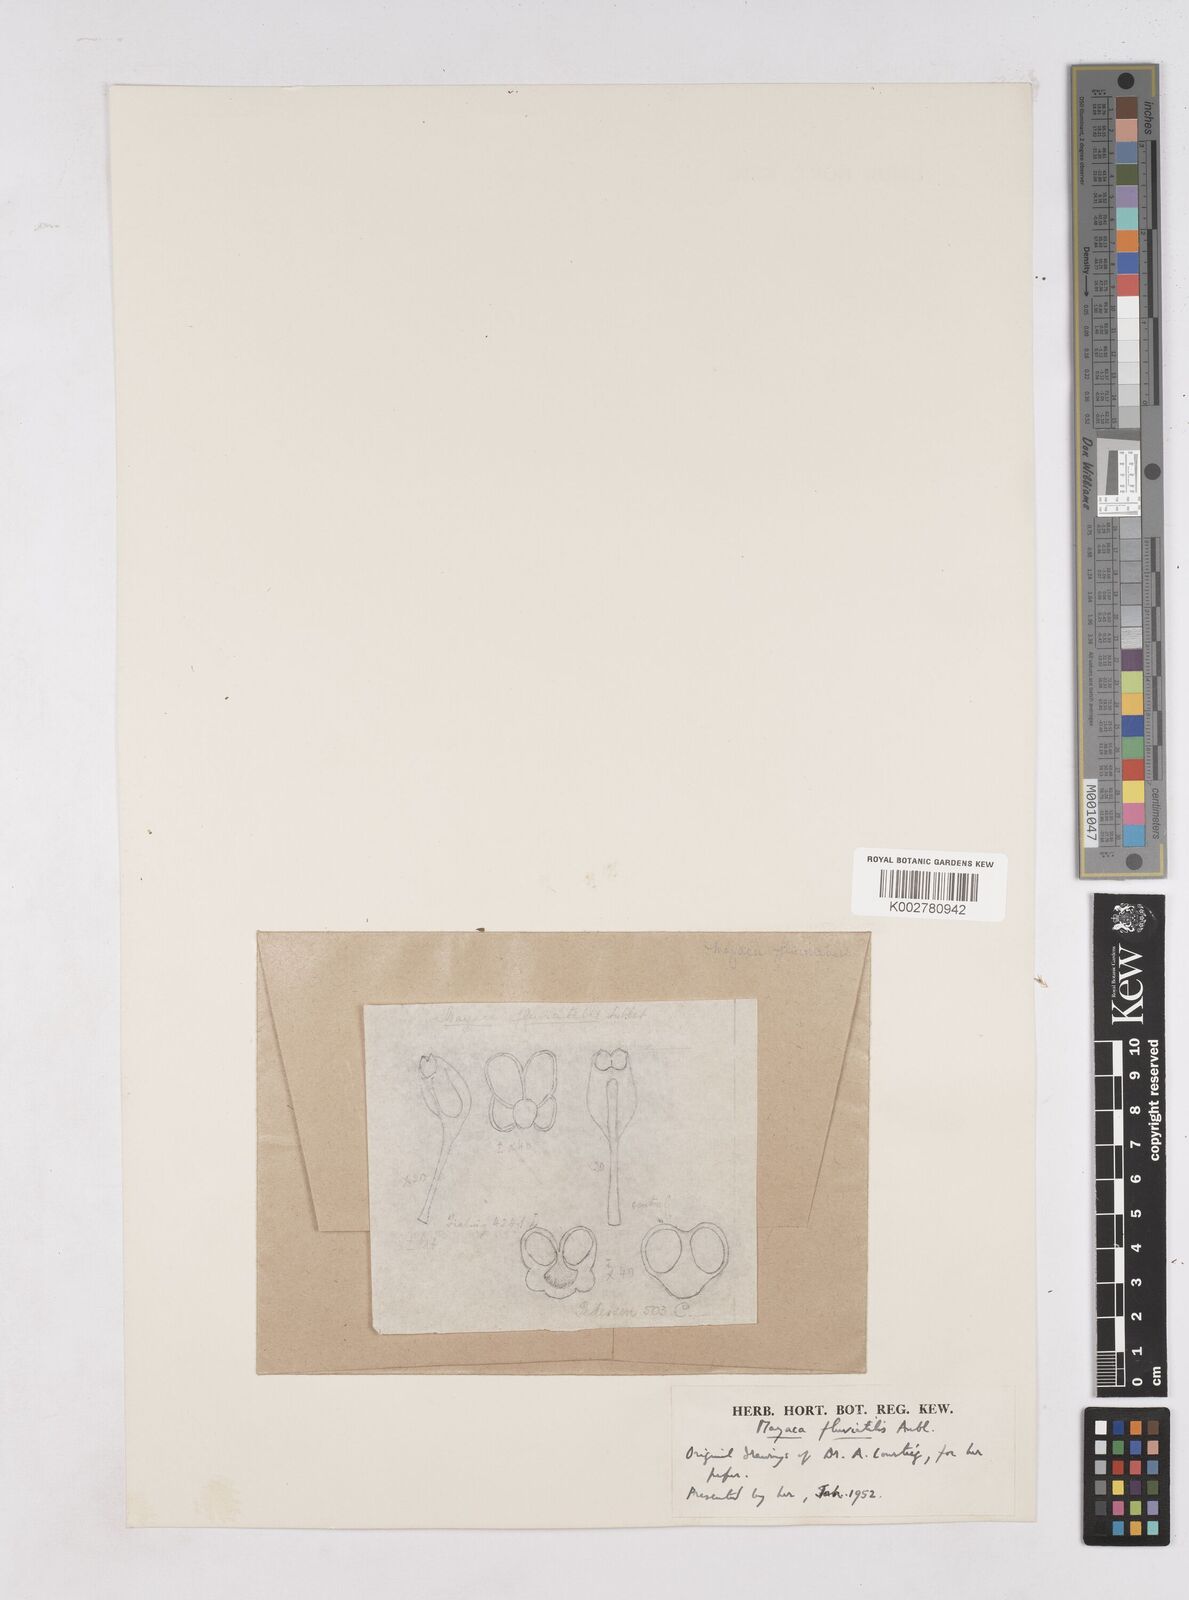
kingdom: Plantae
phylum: Tracheophyta
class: Liliopsida
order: Poales
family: Mayacaceae
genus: Mayaca
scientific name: Mayaca fluviatilis
